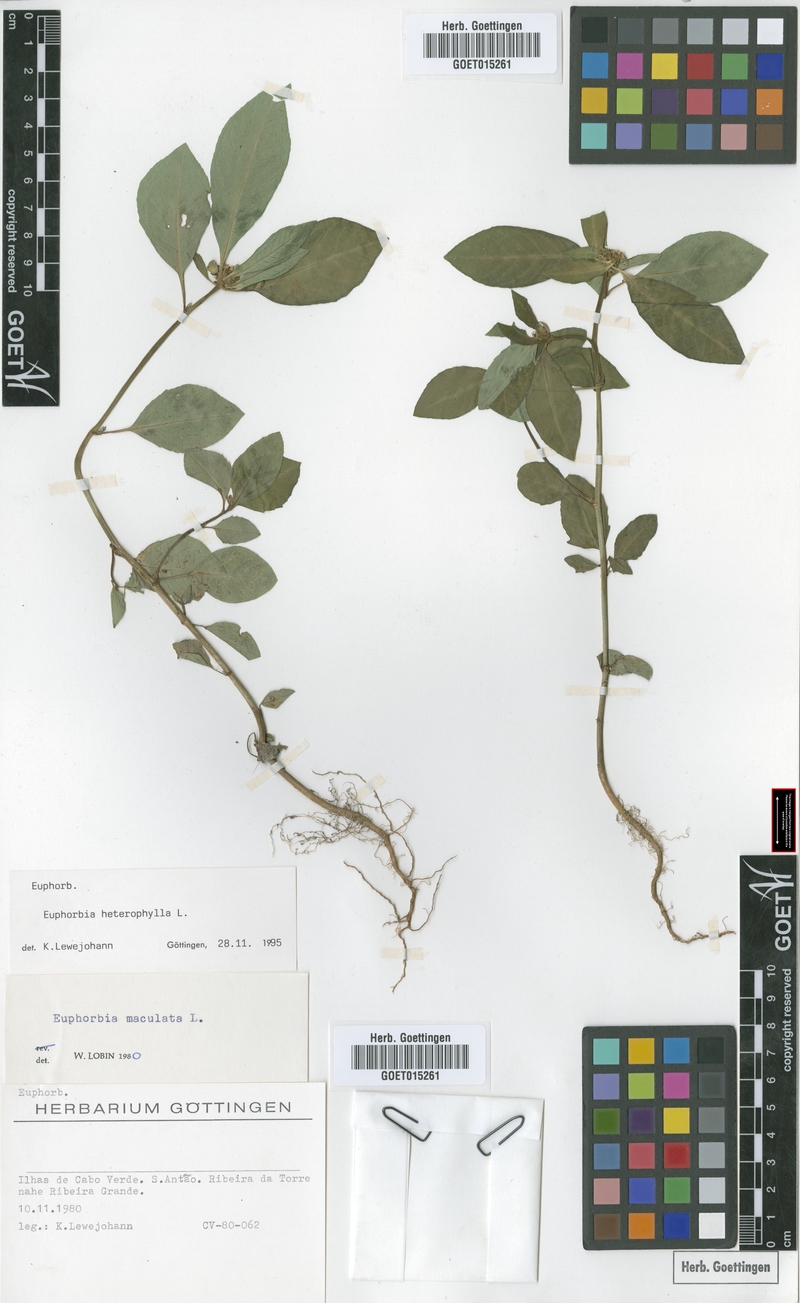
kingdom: Plantae
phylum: Tracheophyta
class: Magnoliopsida
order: Malpighiales
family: Euphorbiaceae
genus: Euphorbia
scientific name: Euphorbia heterophylla
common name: Mexican fireplant
